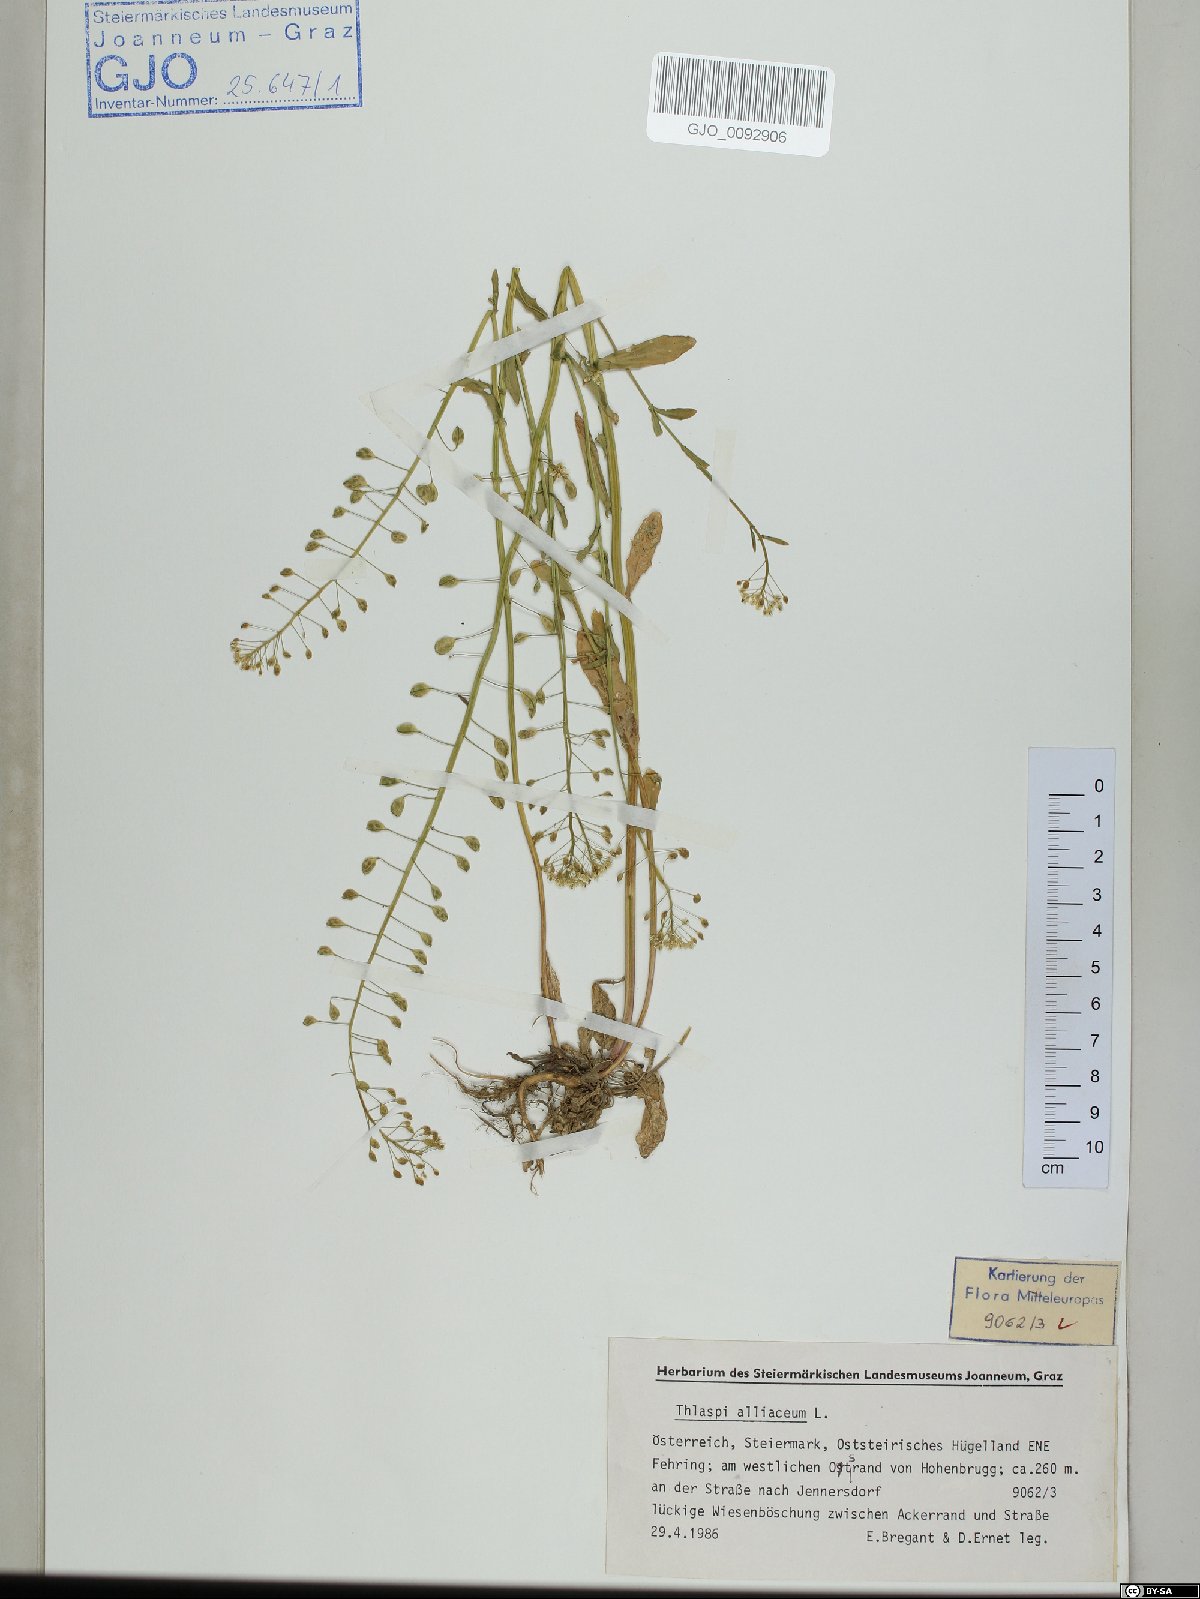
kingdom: Plantae
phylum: Tracheophyta
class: Magnoliopsida
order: Brassicales
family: Brassicaceae
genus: Mummenhoffia
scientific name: Mummenhoffia alliacea
